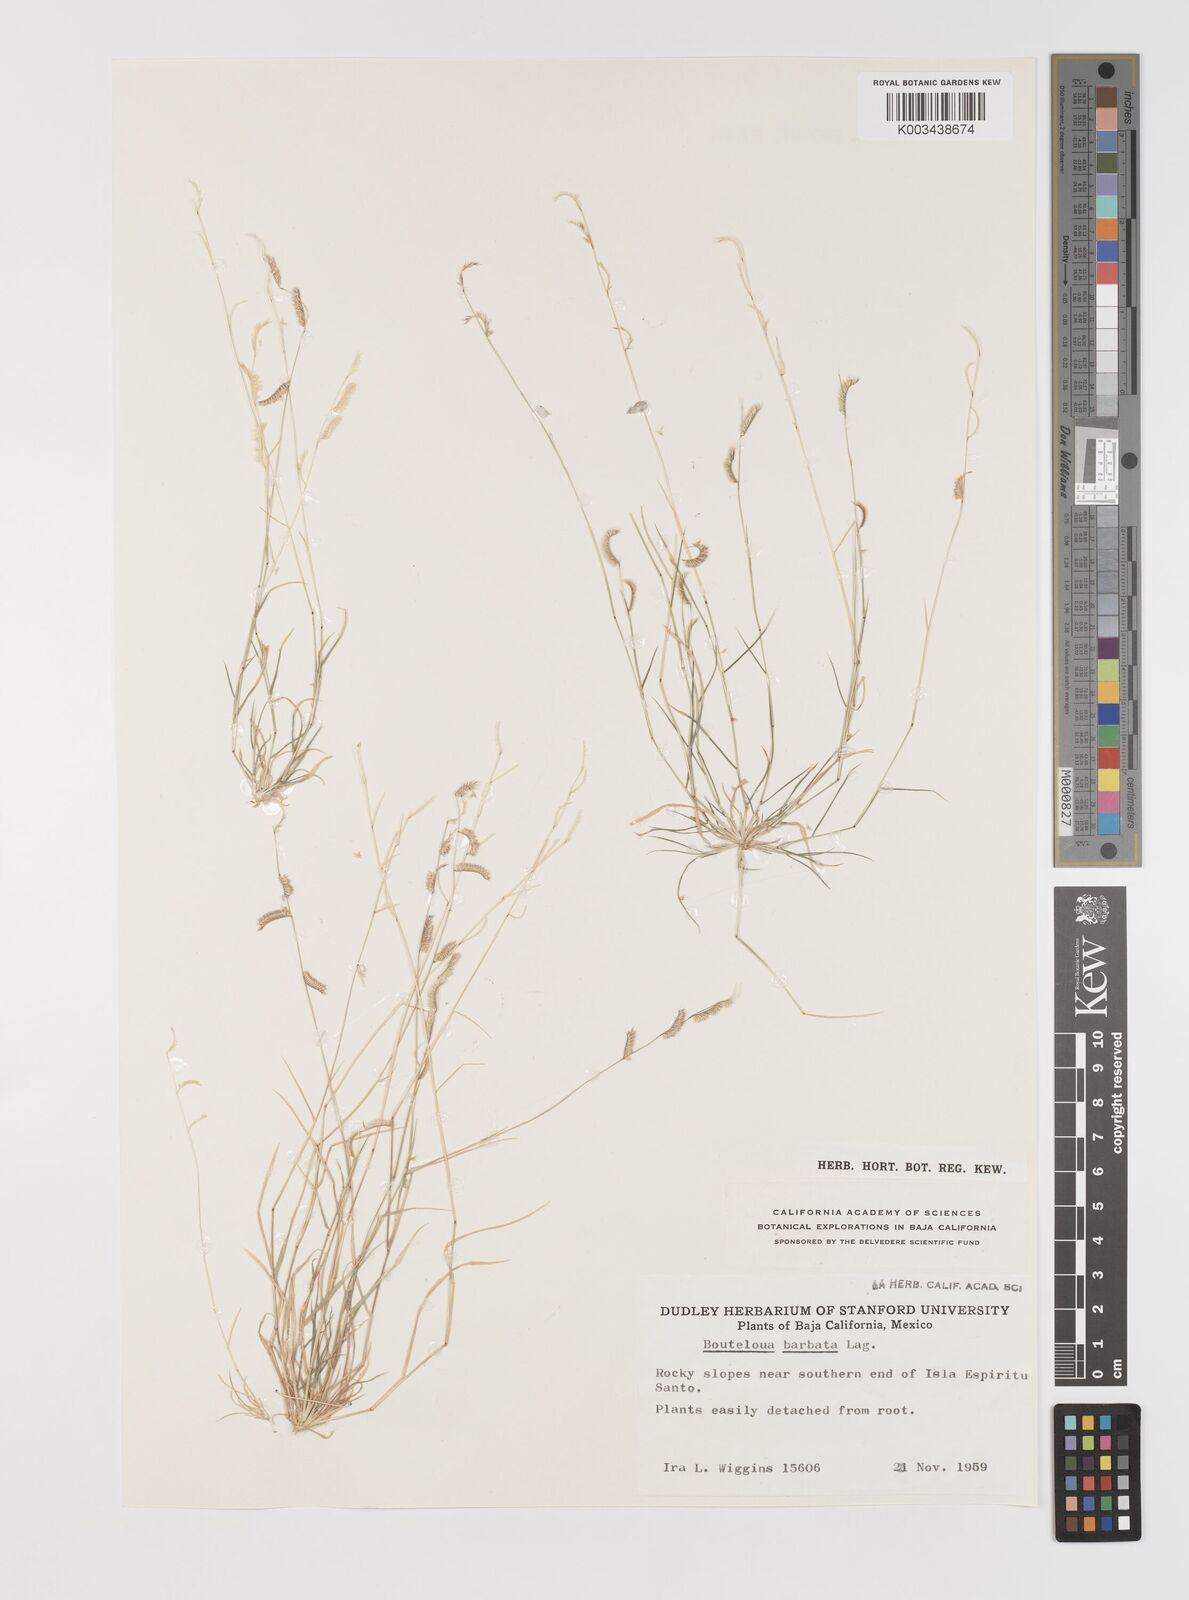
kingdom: Plantae
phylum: Tracheophyta
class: Liliopsida
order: Poales
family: Poaceae
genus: Bouteloua
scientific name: Bouteloua
